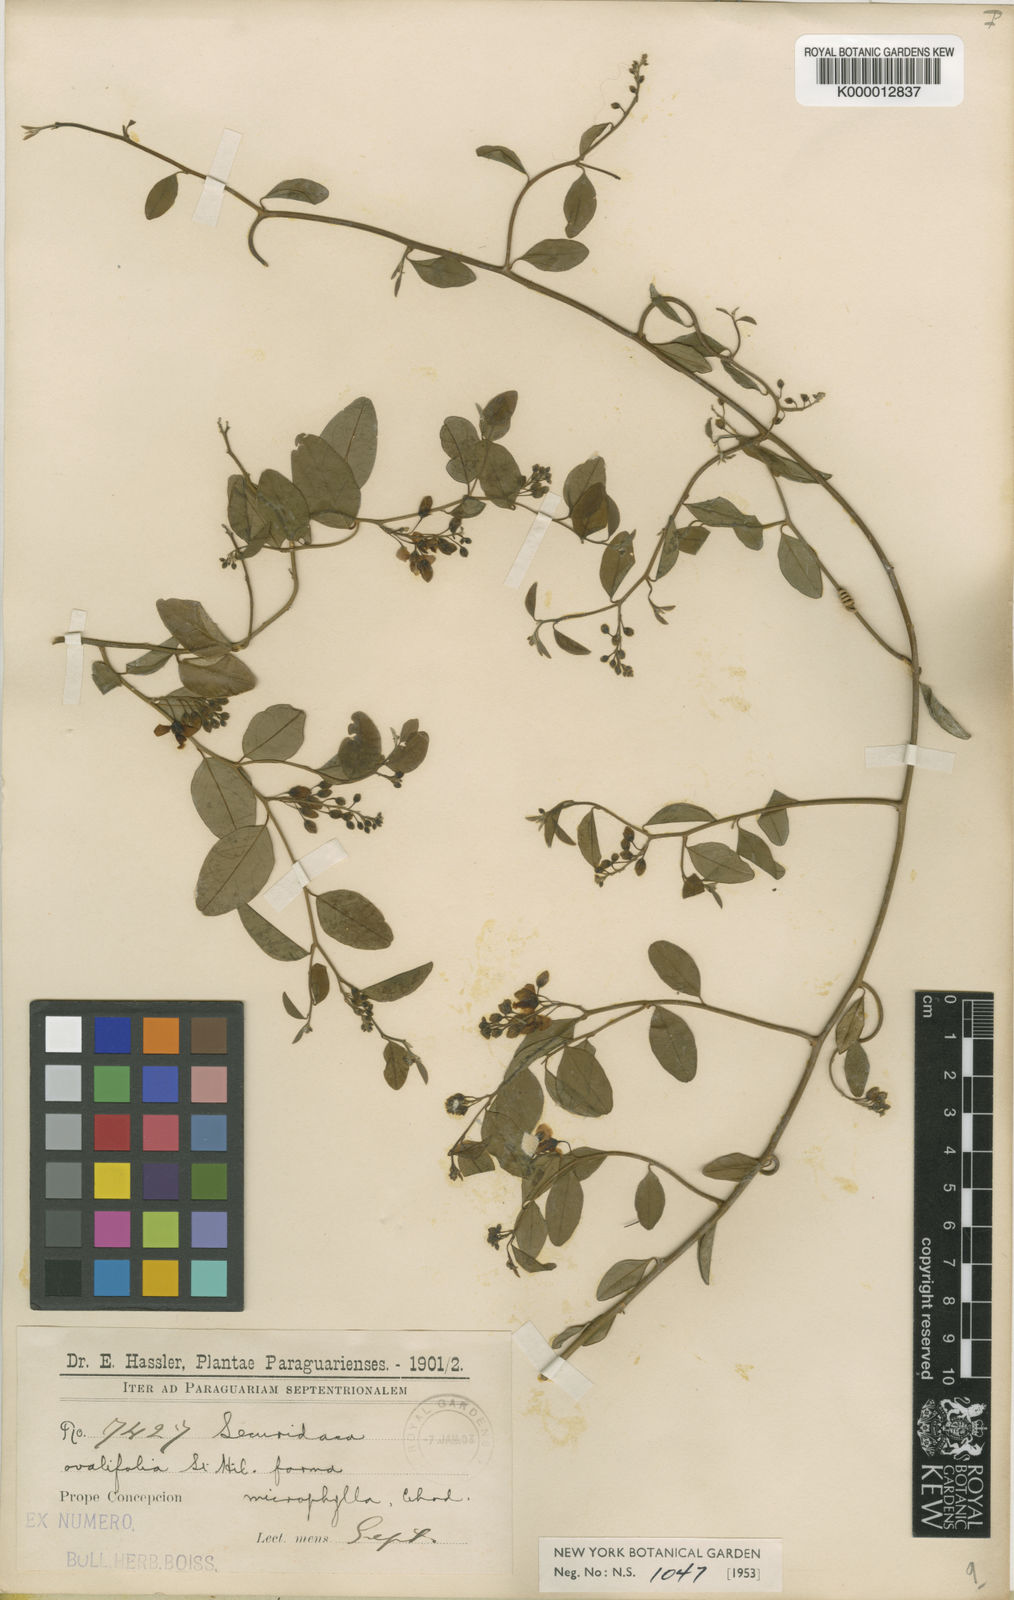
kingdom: Plantae
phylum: Tracheophyta
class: Magnoliopsida
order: Fabales
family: Polygalaceae
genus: Securidaca
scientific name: Securidaca ovalifolia
